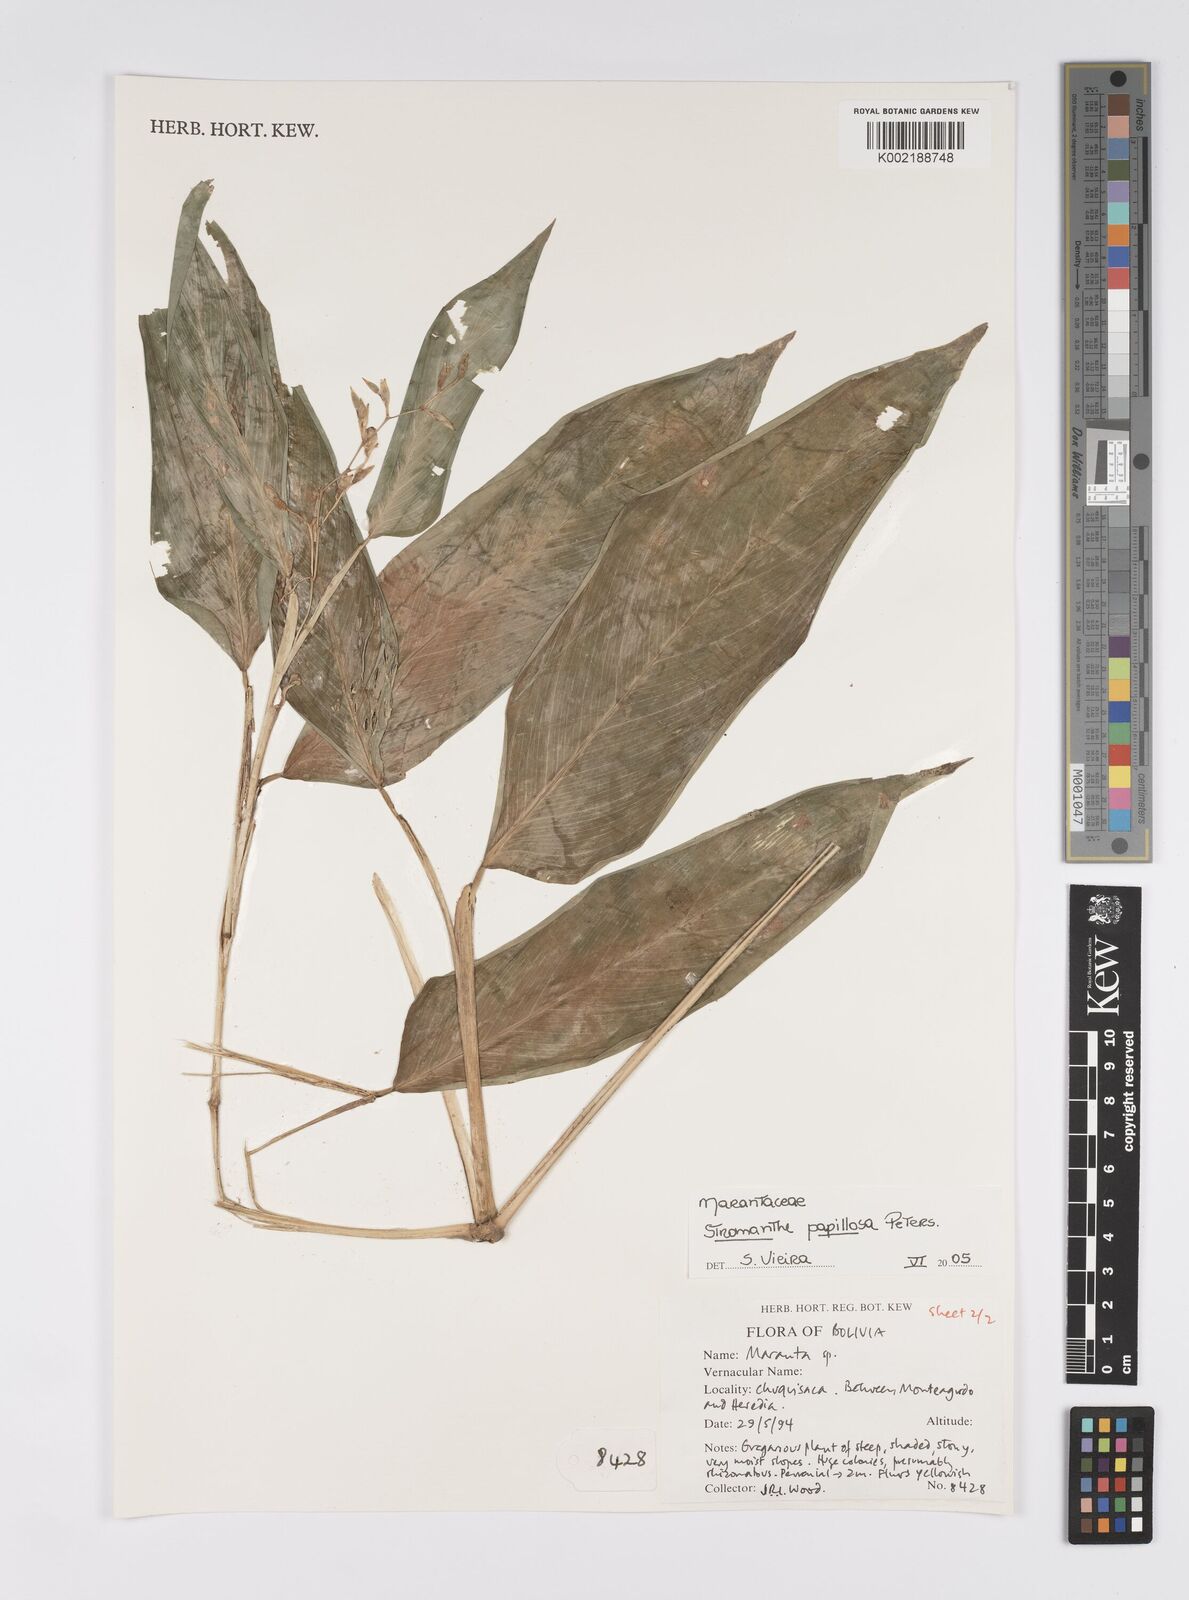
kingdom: Plantae
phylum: Tracheophyta
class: Liliopsida
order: Zingiberales
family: Marantaceae
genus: Stromanthe
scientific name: Stromanthe papillosa
